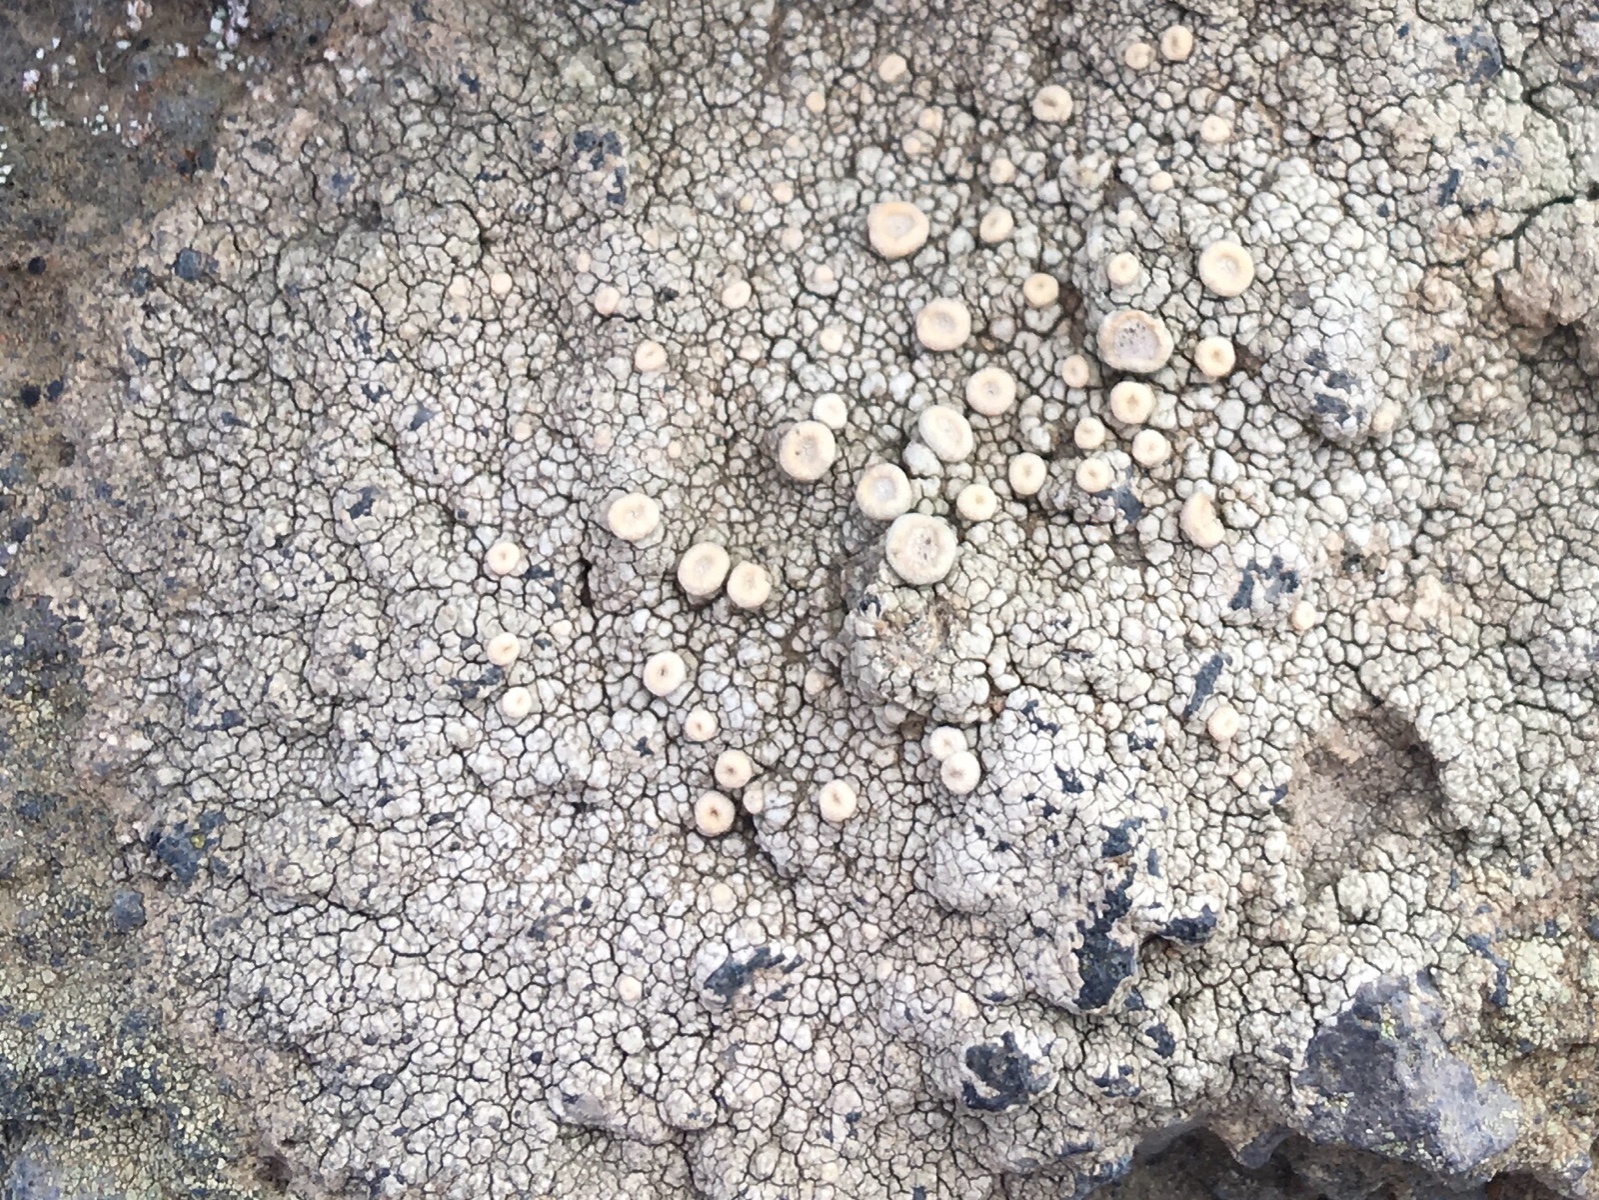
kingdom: Fungi
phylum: Ascomycota
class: Lecanoromycetes
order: Pertusariales
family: Ochrolechiaceae
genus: Ochrolechia
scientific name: Ochrolechia parella
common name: almindelig blegskivelav
